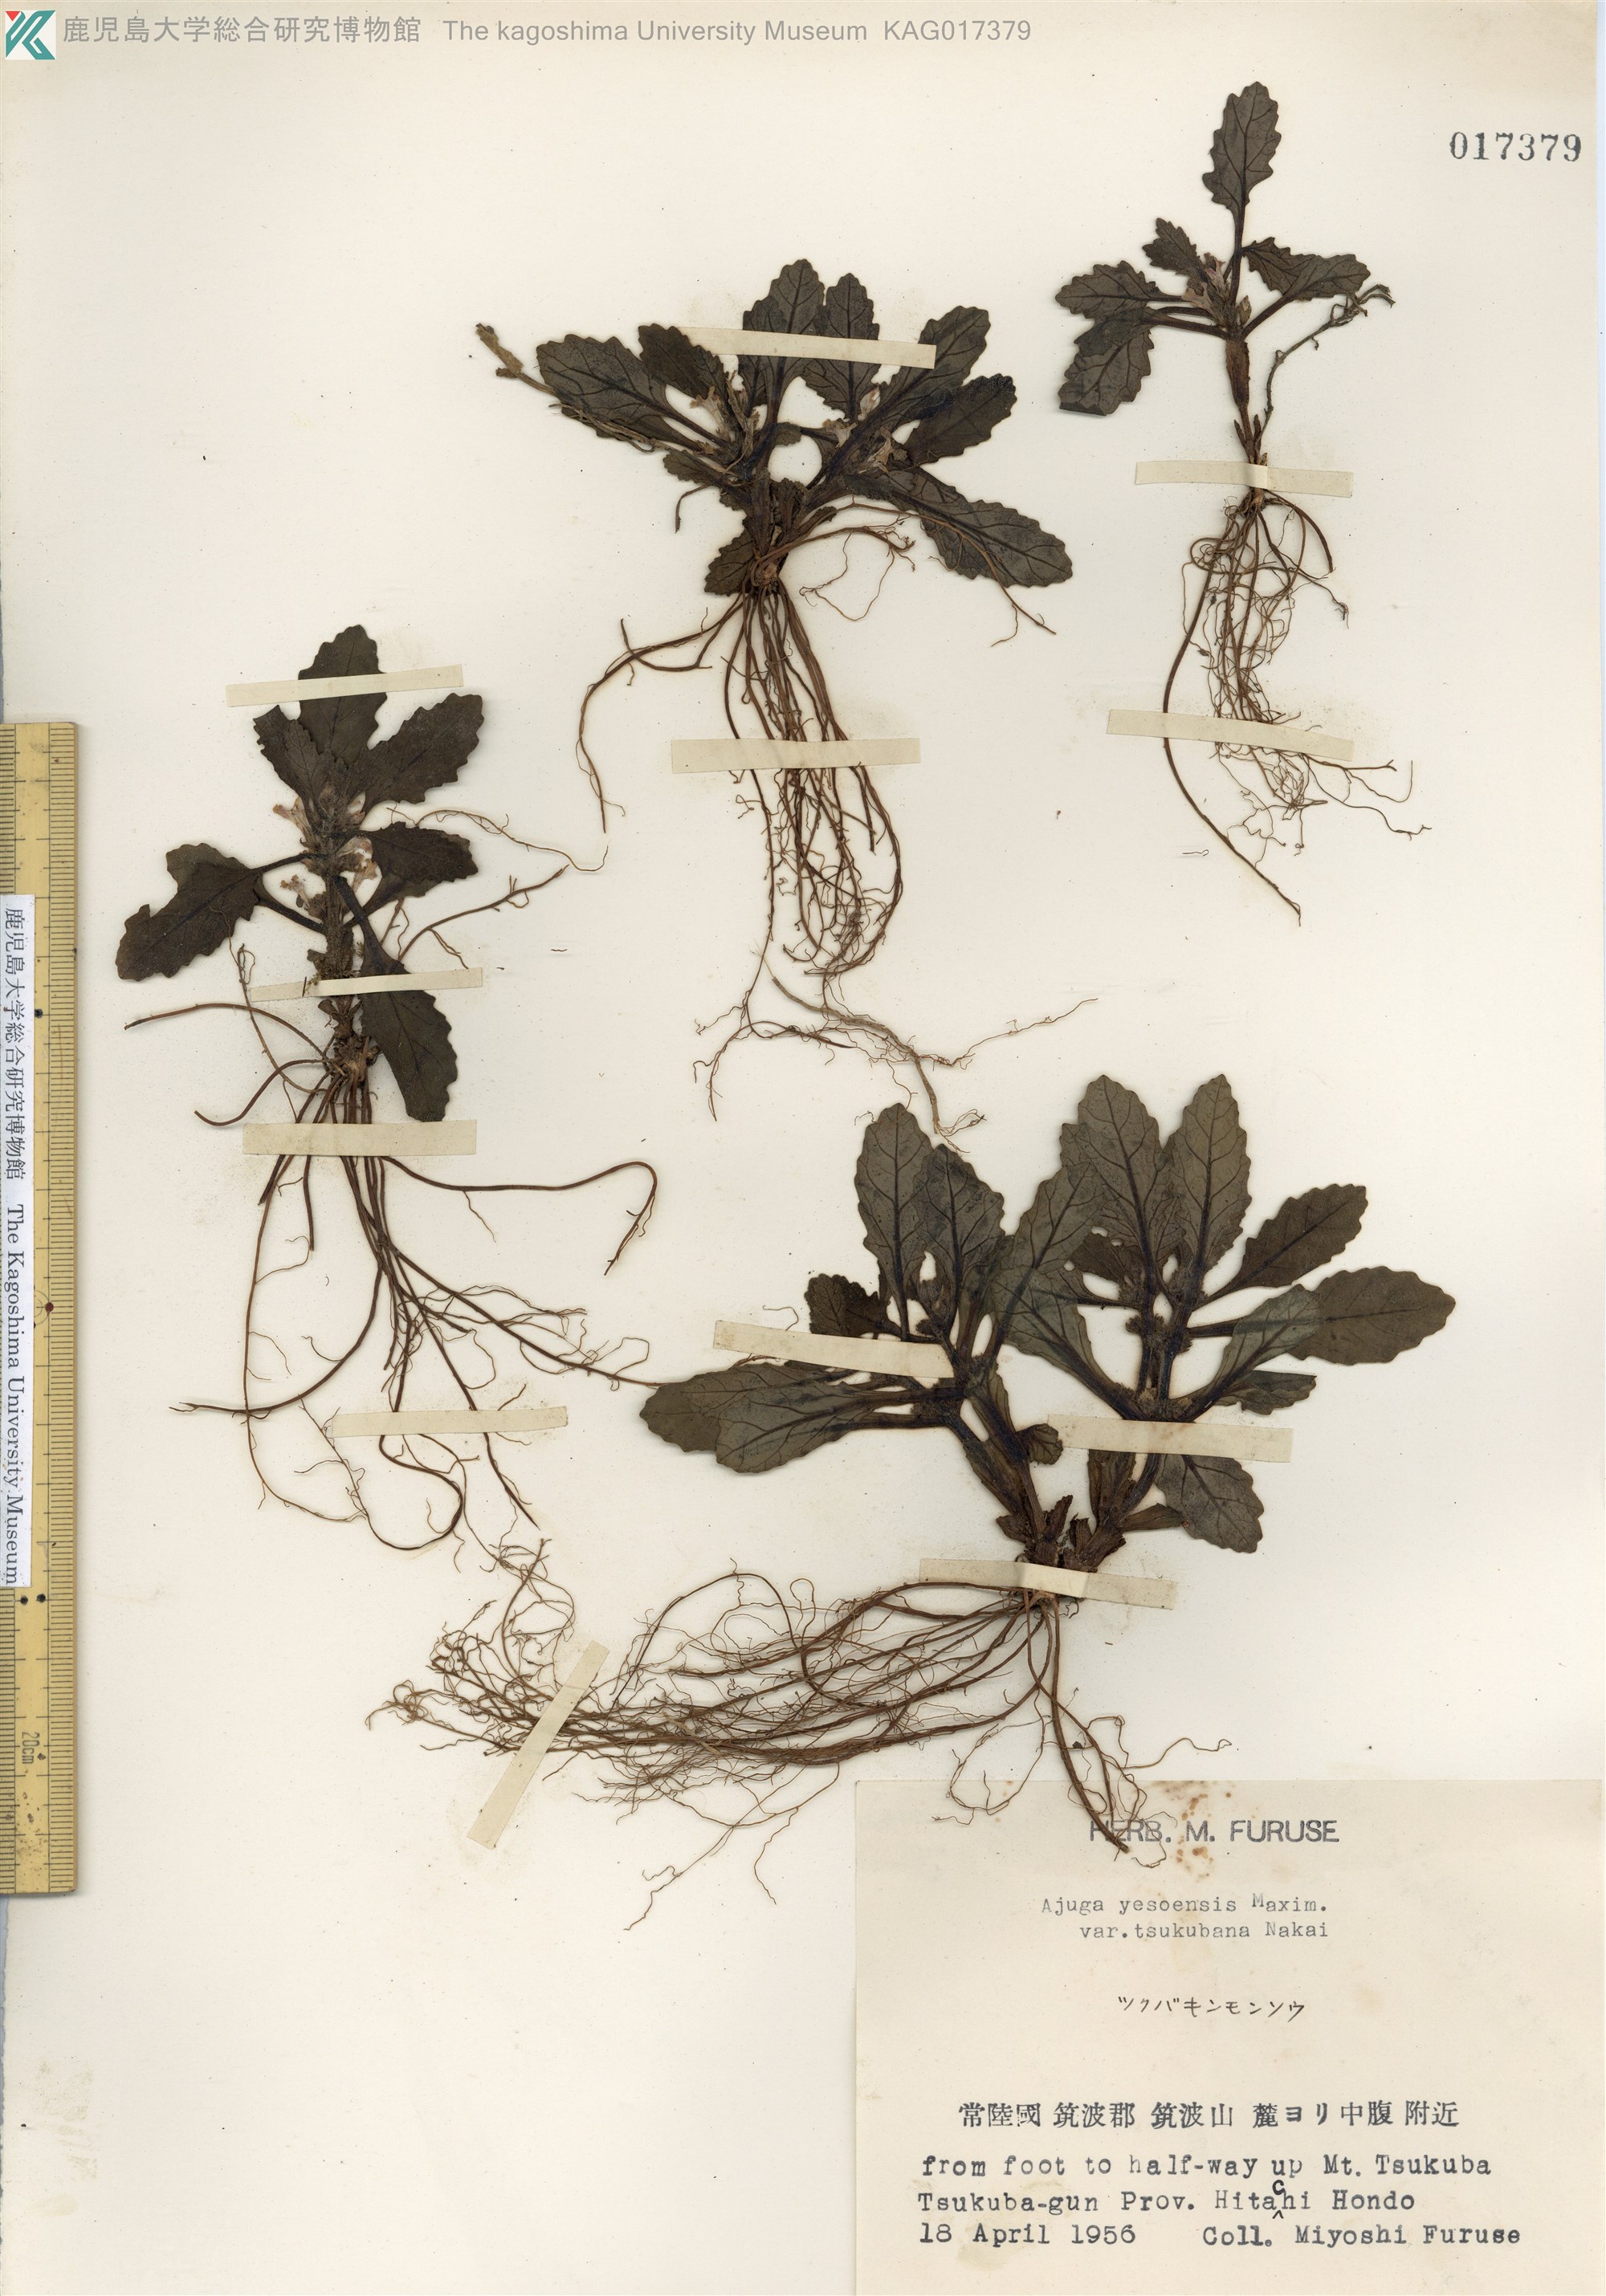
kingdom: Plantae
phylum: Tracheophyta
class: Magnoliopsida
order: Lamiales
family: Lamiaceae
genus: Ajuga
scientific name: Ajuga yesoensis
